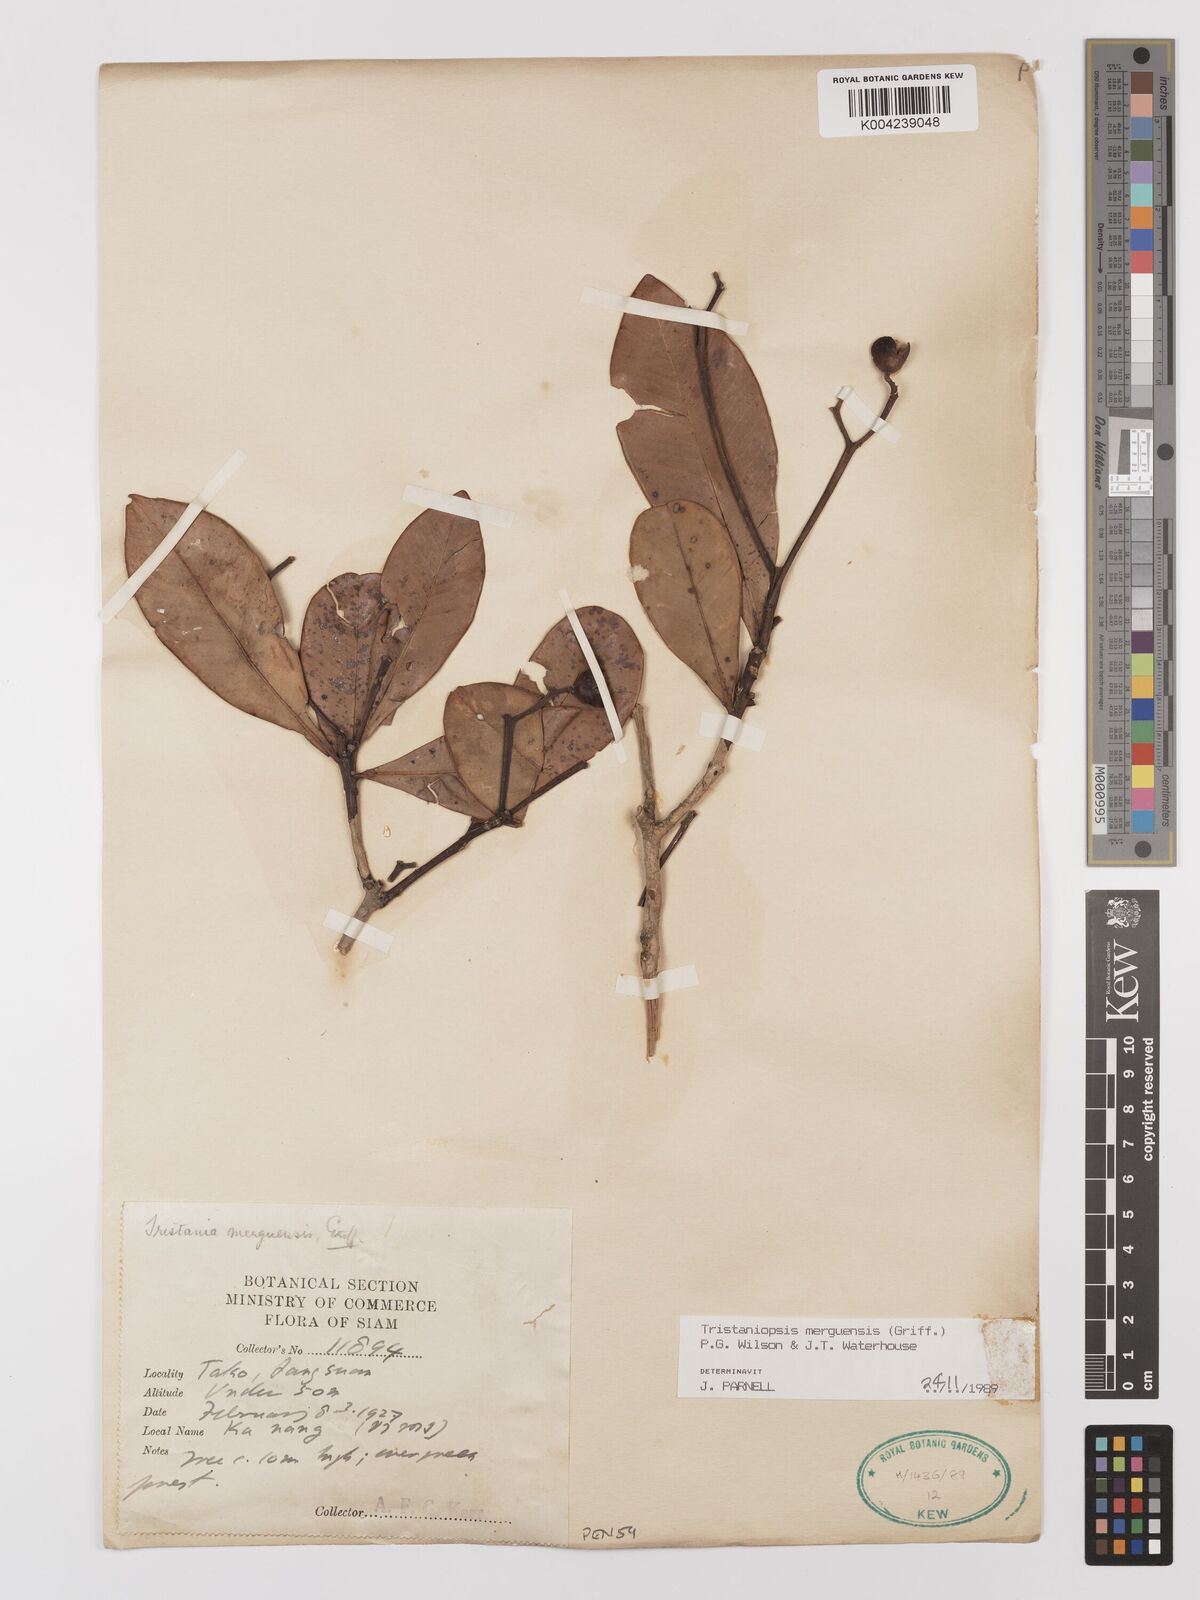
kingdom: Plantae
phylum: Tracheophyta
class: Magnoliopsida
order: Myrtales
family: Myrtaceae
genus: Tristaniopsis
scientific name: Tristaniopsis merguensis
